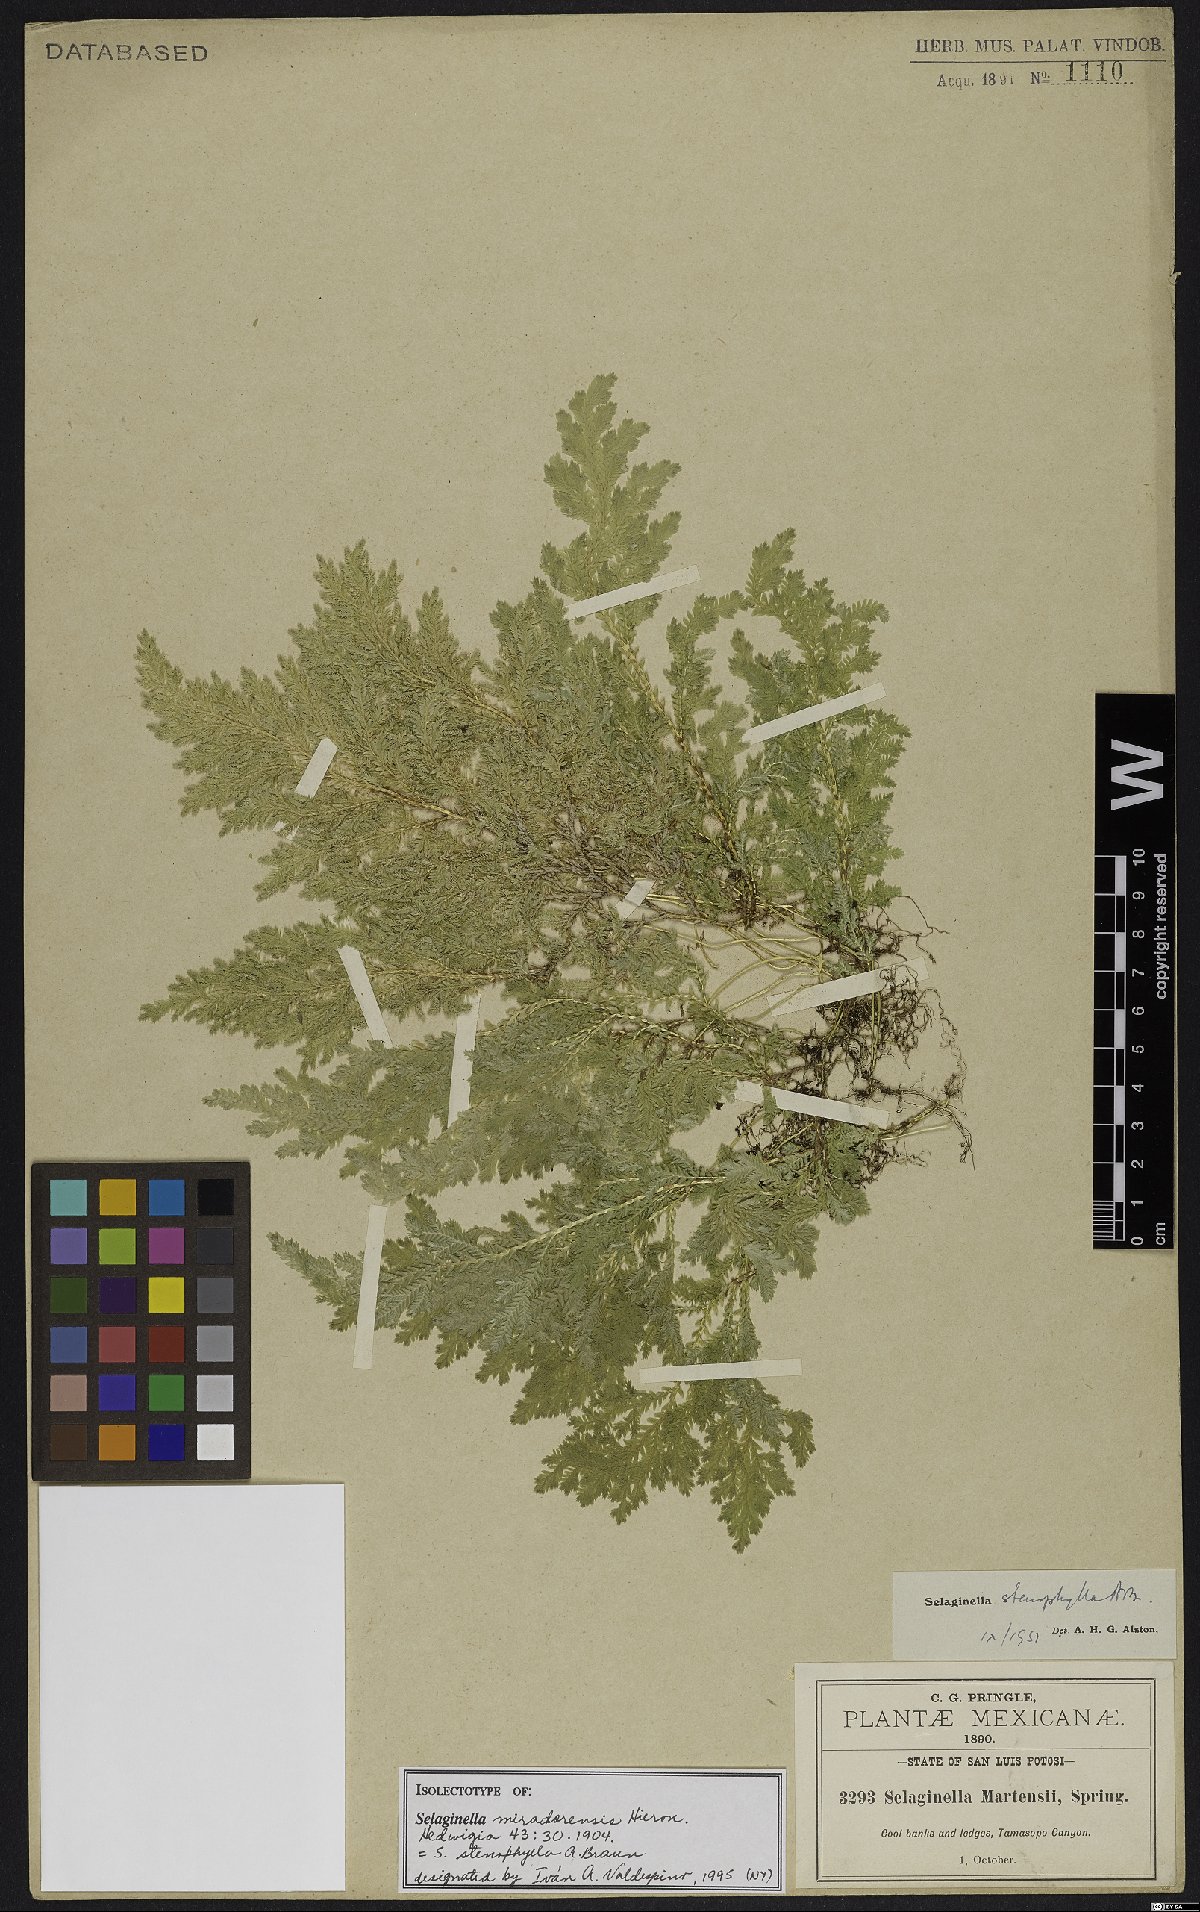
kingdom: Plantae
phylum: Tracheophyta
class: Lycopodiopsida
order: Selaginellales
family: Selaginellaceae
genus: Selaginella
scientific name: Selaginella stenophylla
